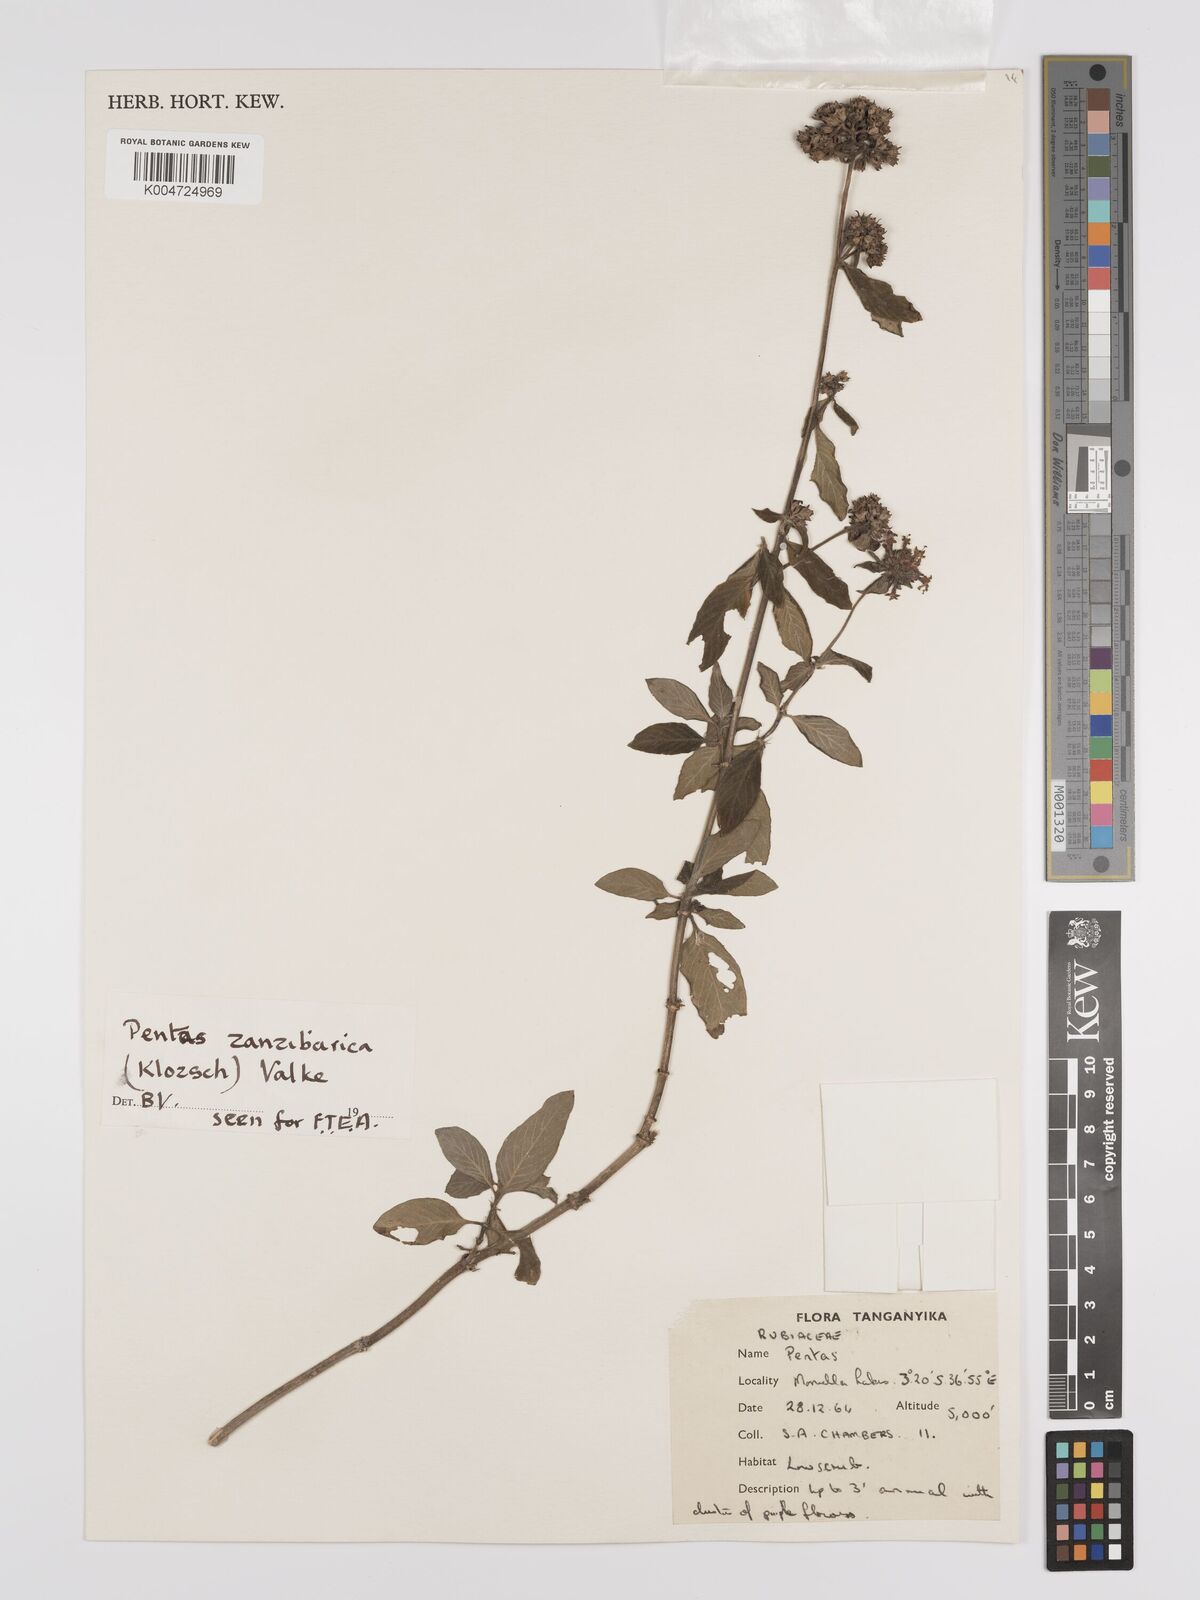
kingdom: Plantae
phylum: Tracheophyta
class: Magnoliopsida
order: Gentianales
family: Rubiaceae
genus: Pentas
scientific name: Pentas zanzibarica
